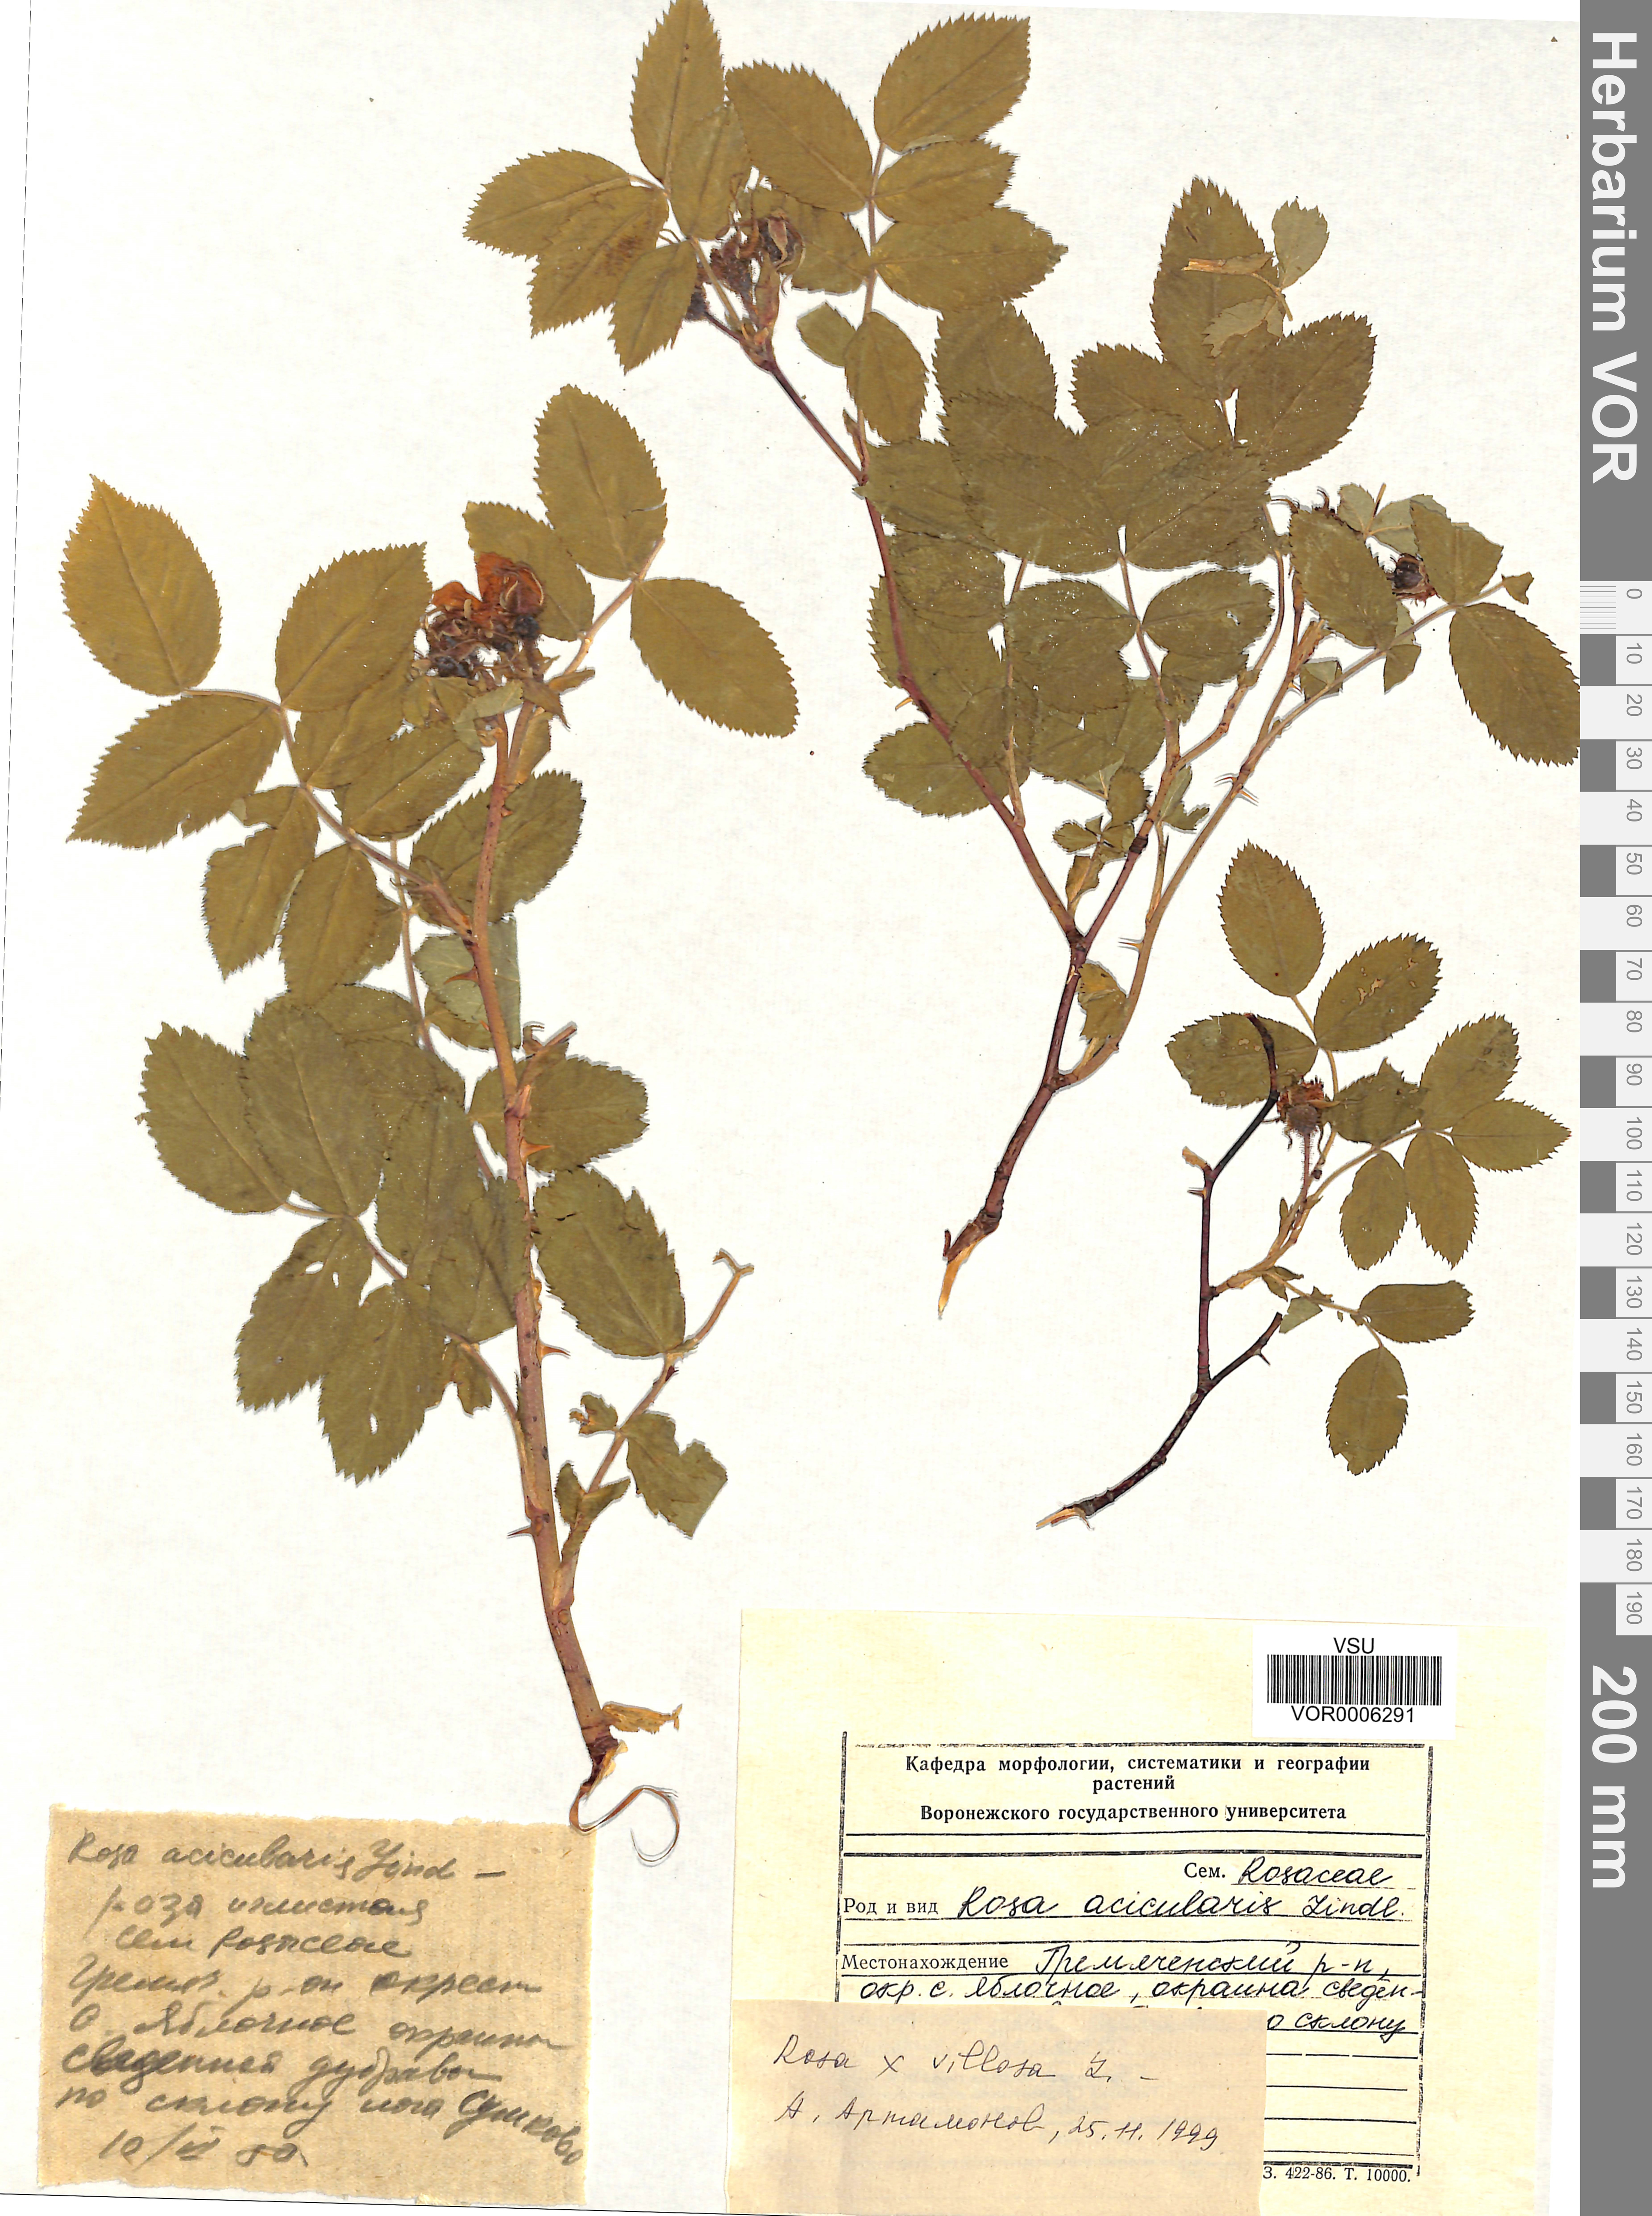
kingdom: Plantae
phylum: Tracheophyta
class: Magnoliopsida
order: Rosales
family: Rosaceae
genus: Rosa
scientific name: Rosa villosa
